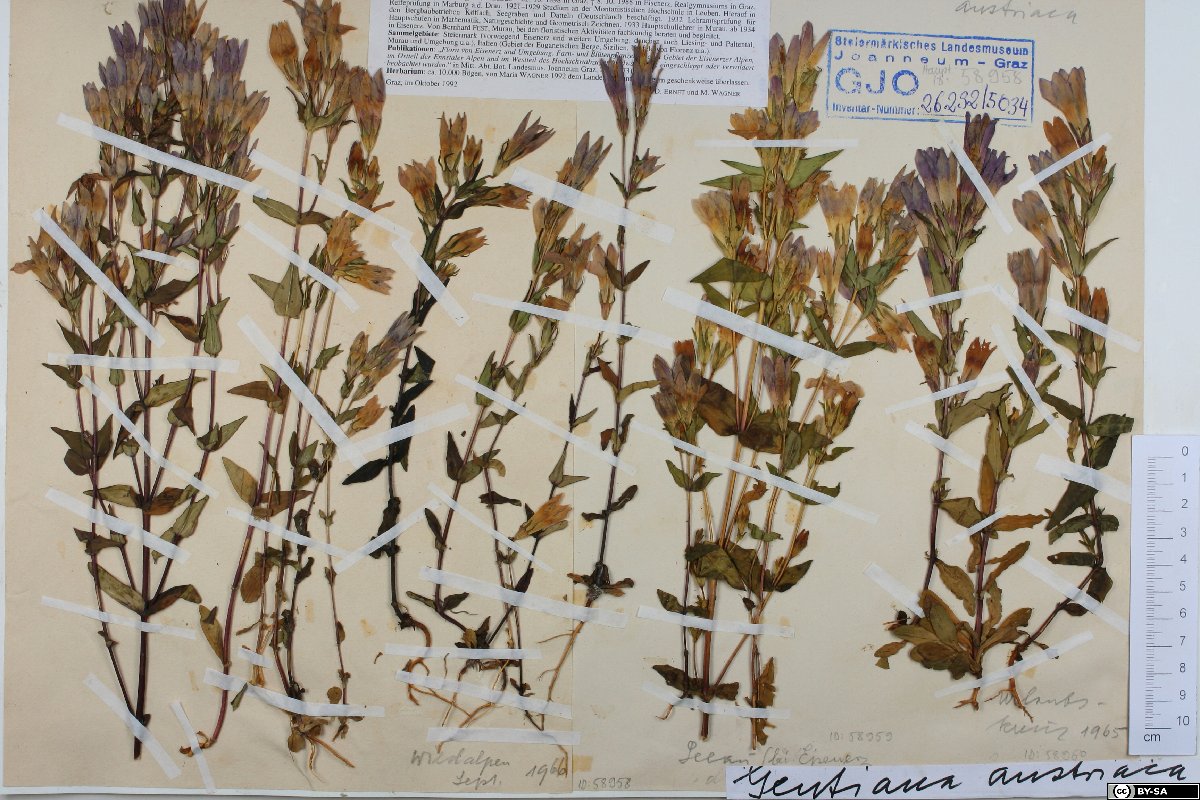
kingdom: Plantae
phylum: Tracheophyta
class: Magnoliopsida
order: Gentianales
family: Gentianaceae
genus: Gentianella
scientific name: Gentianella austriaca
